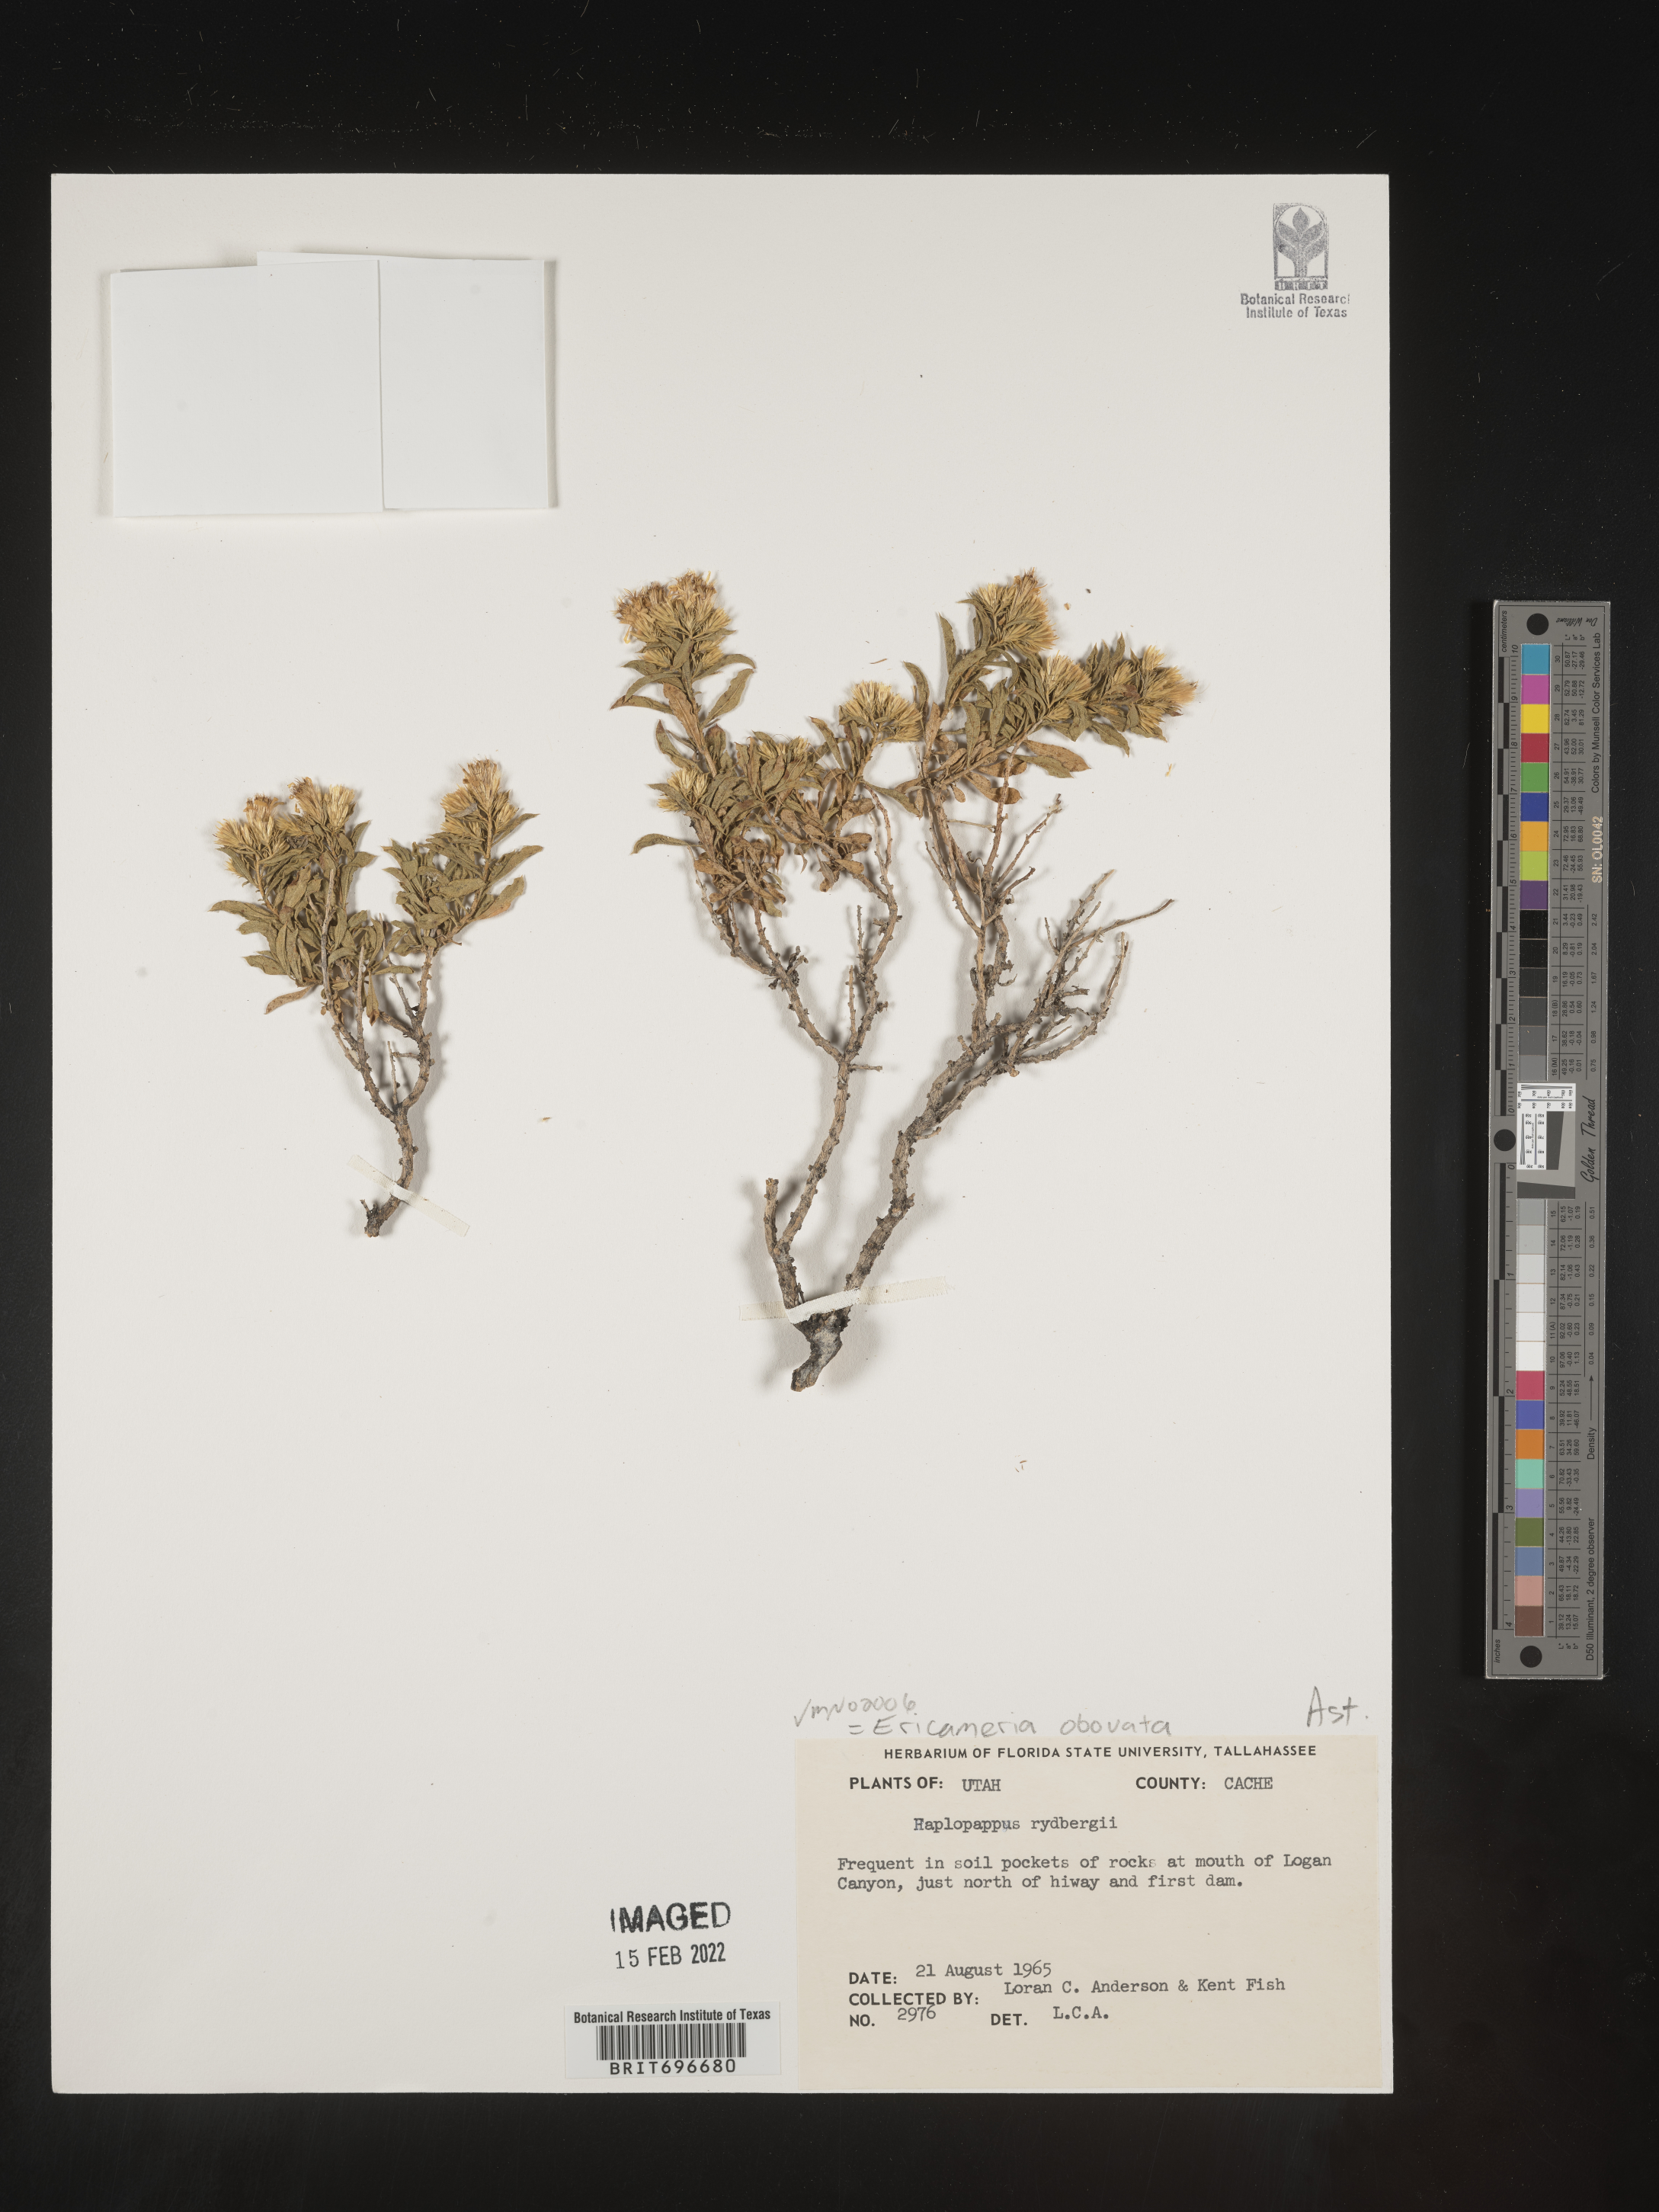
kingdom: Plantae
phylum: Tracheophyta
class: Magnoliopsida
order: Asterales
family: Asteraceae
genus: Ericameria
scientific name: Ericameria obovata
